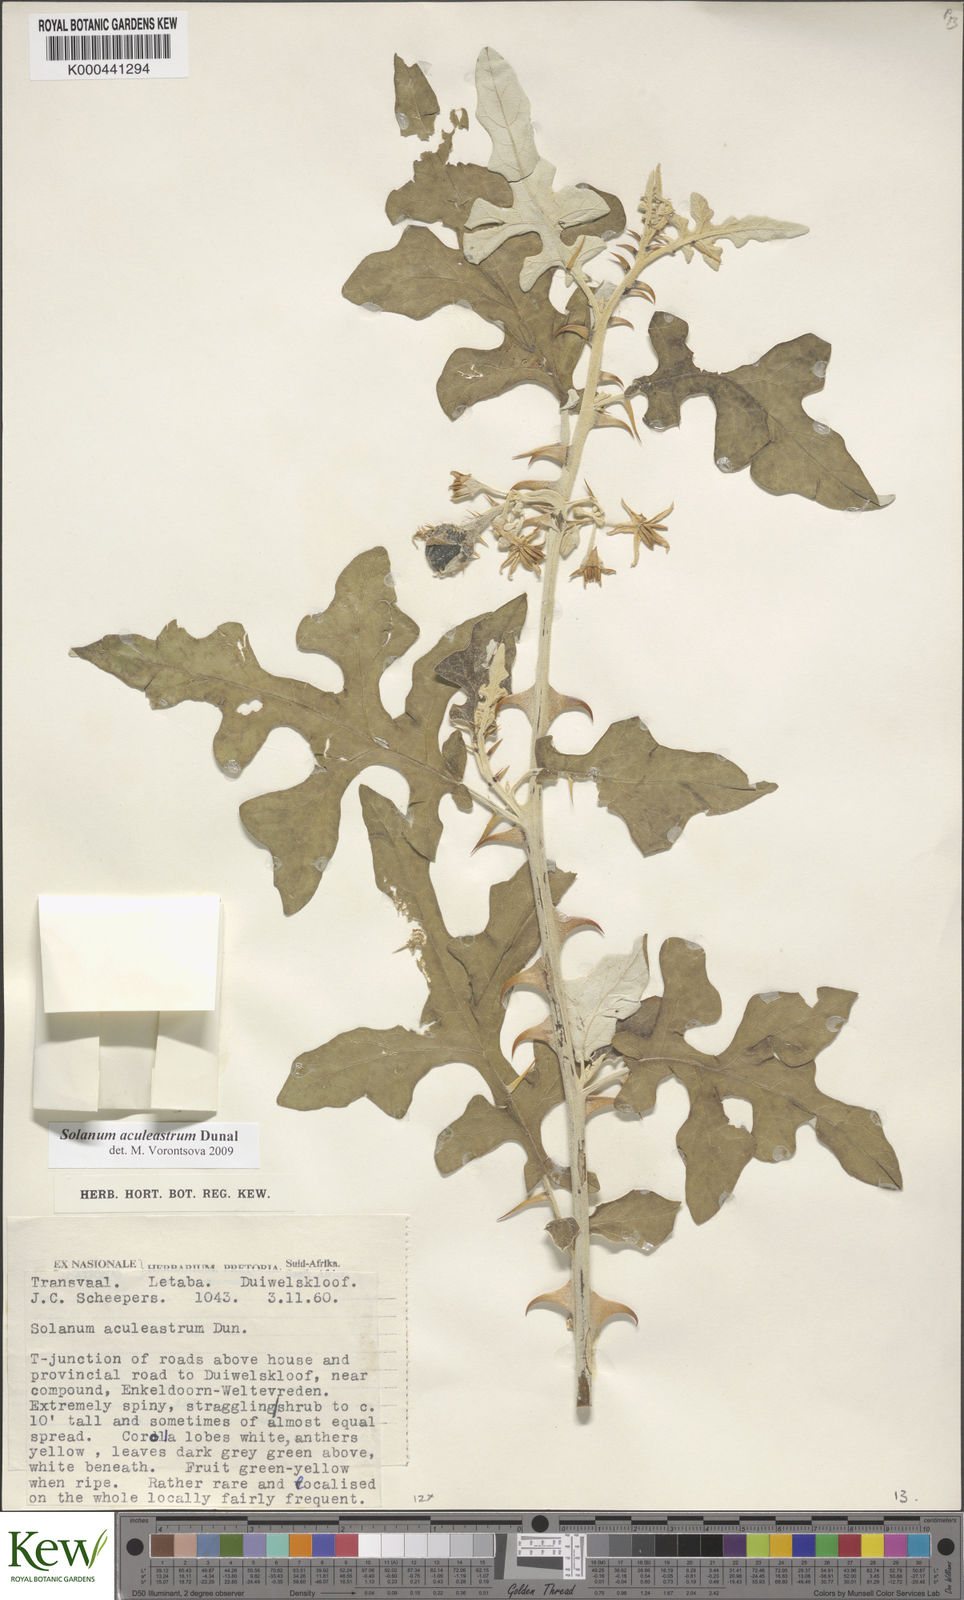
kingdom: Plantae
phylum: Tracheophyta
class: Magnoliopsida
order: Solanales
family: Solanaceae
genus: Solanum
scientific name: Solanum aculeastrum
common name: Goat bitter-apple
